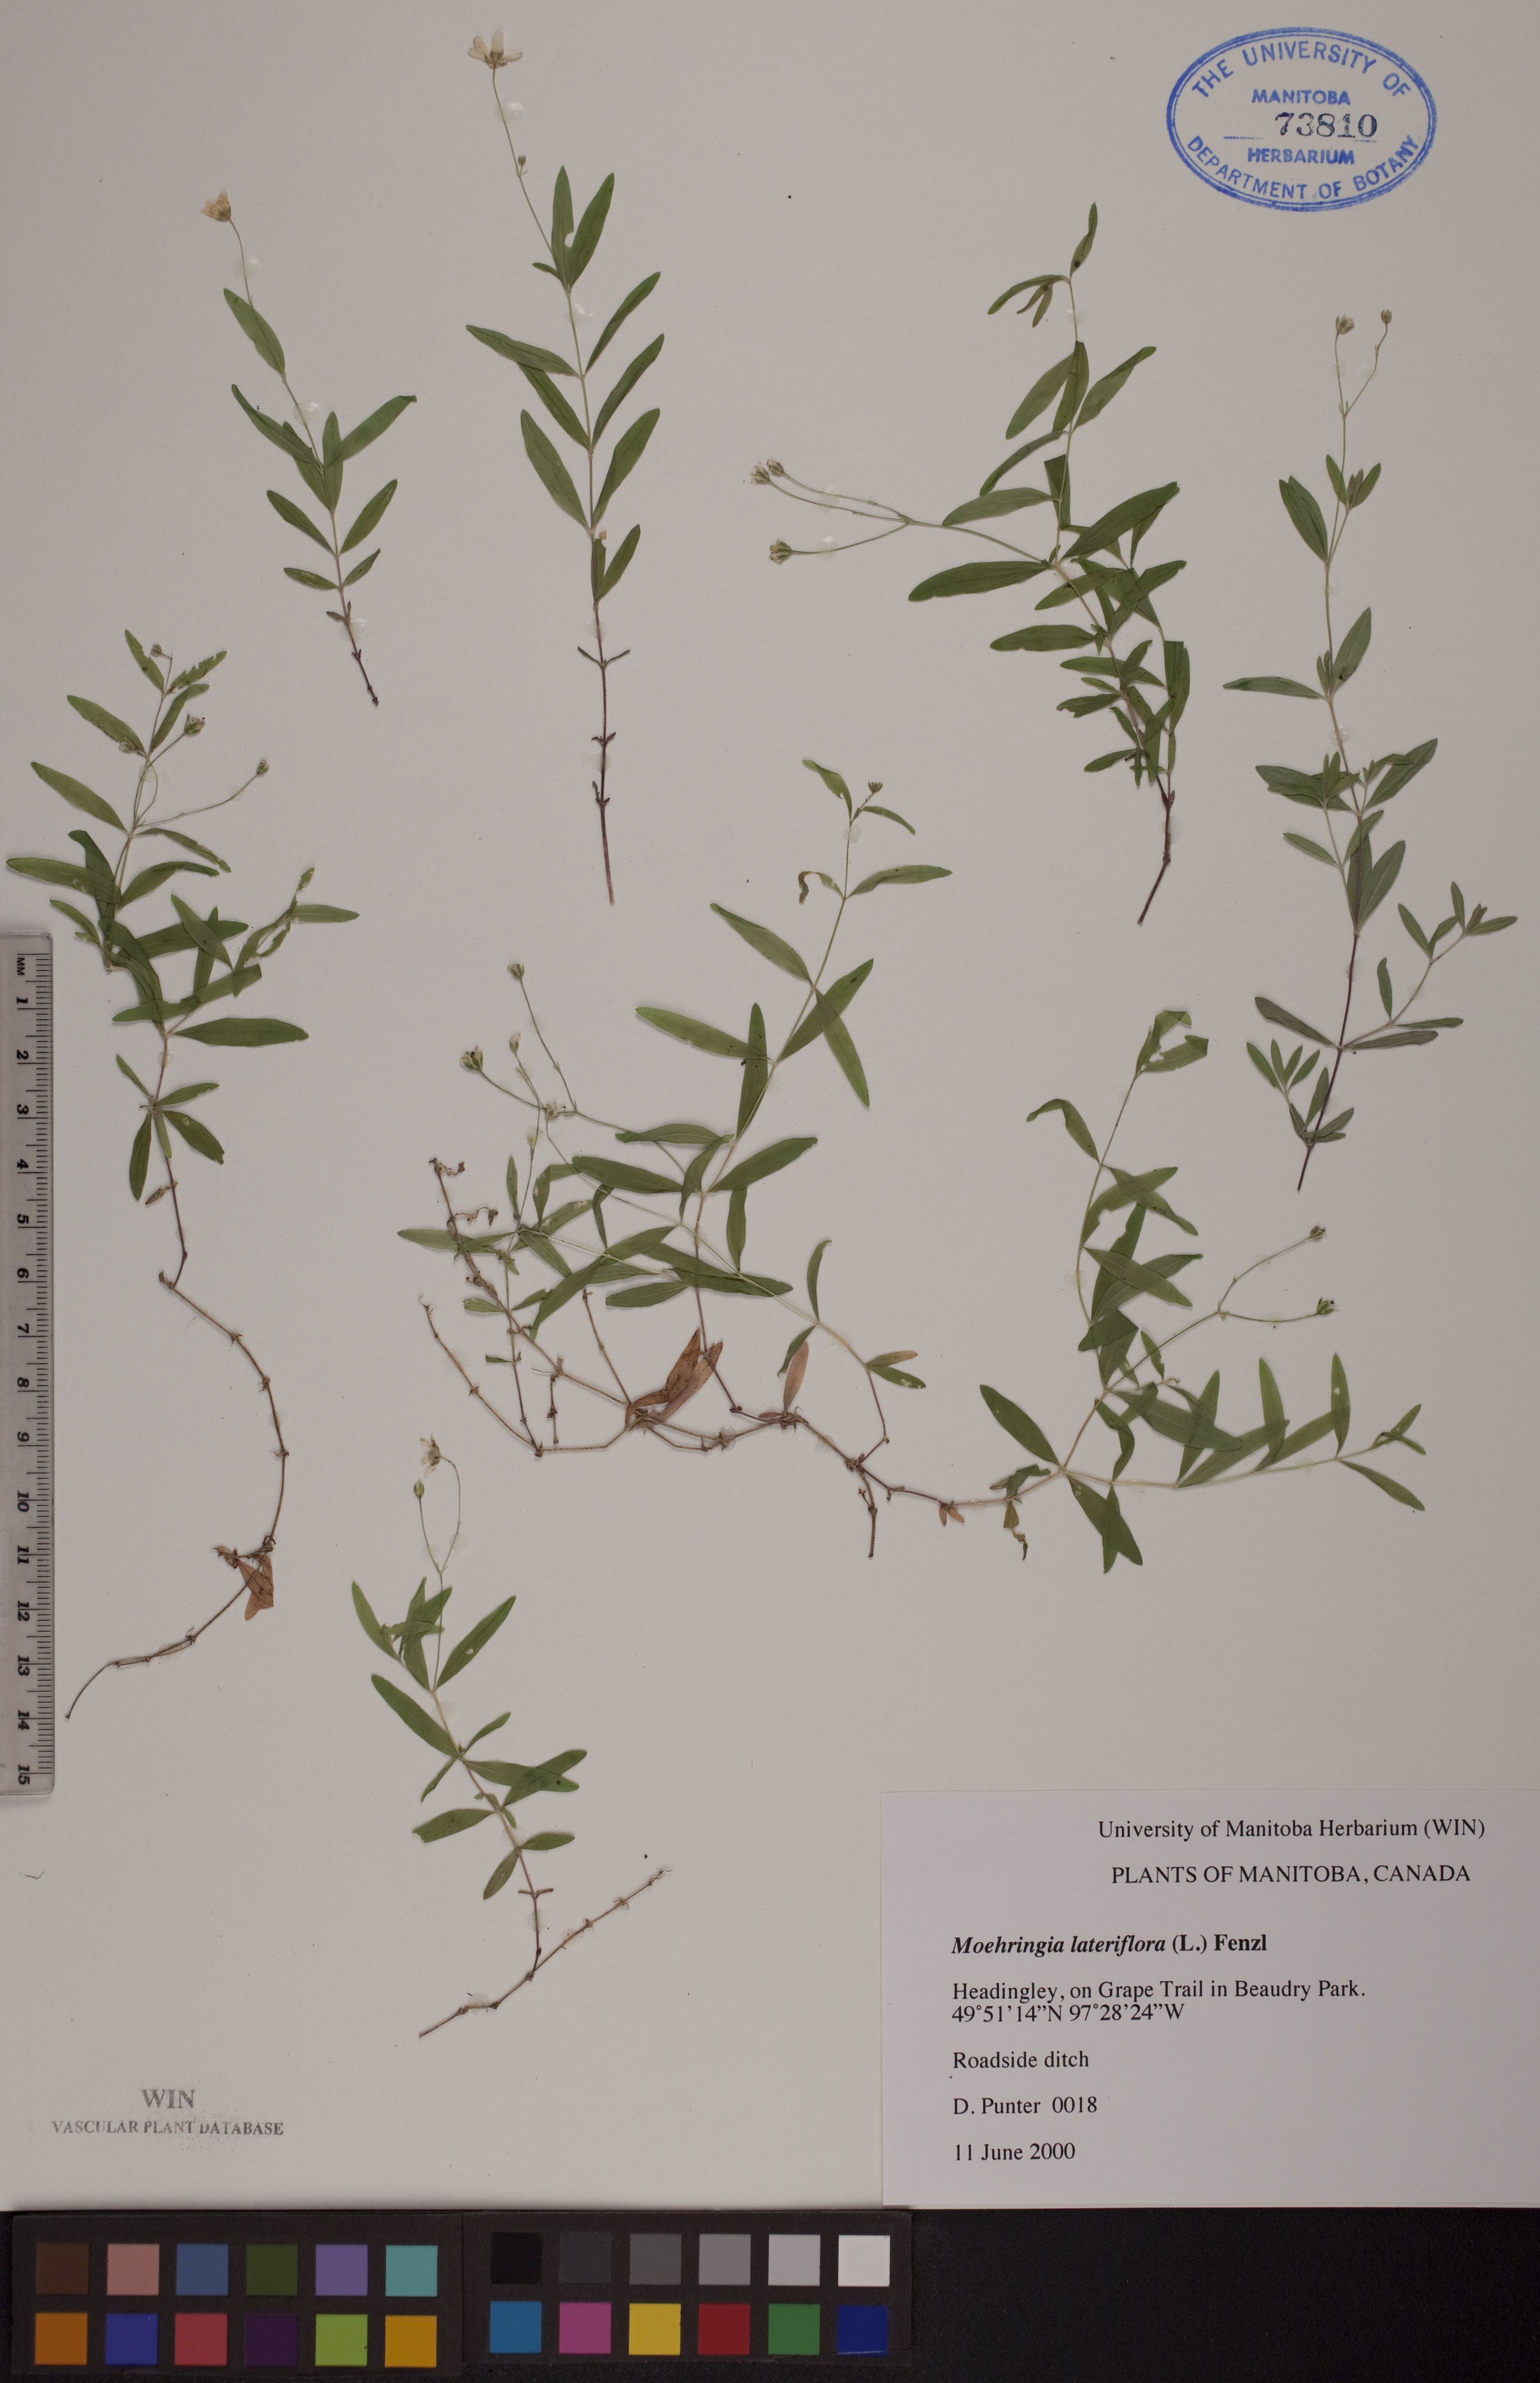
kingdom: Plantae
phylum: Tracheophyta
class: Magnoliopsida
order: Caryophyllales
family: Caryophyllaceae
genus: Moehringia
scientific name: Moehringia lateriflora
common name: Blunt-leaved sandwort
